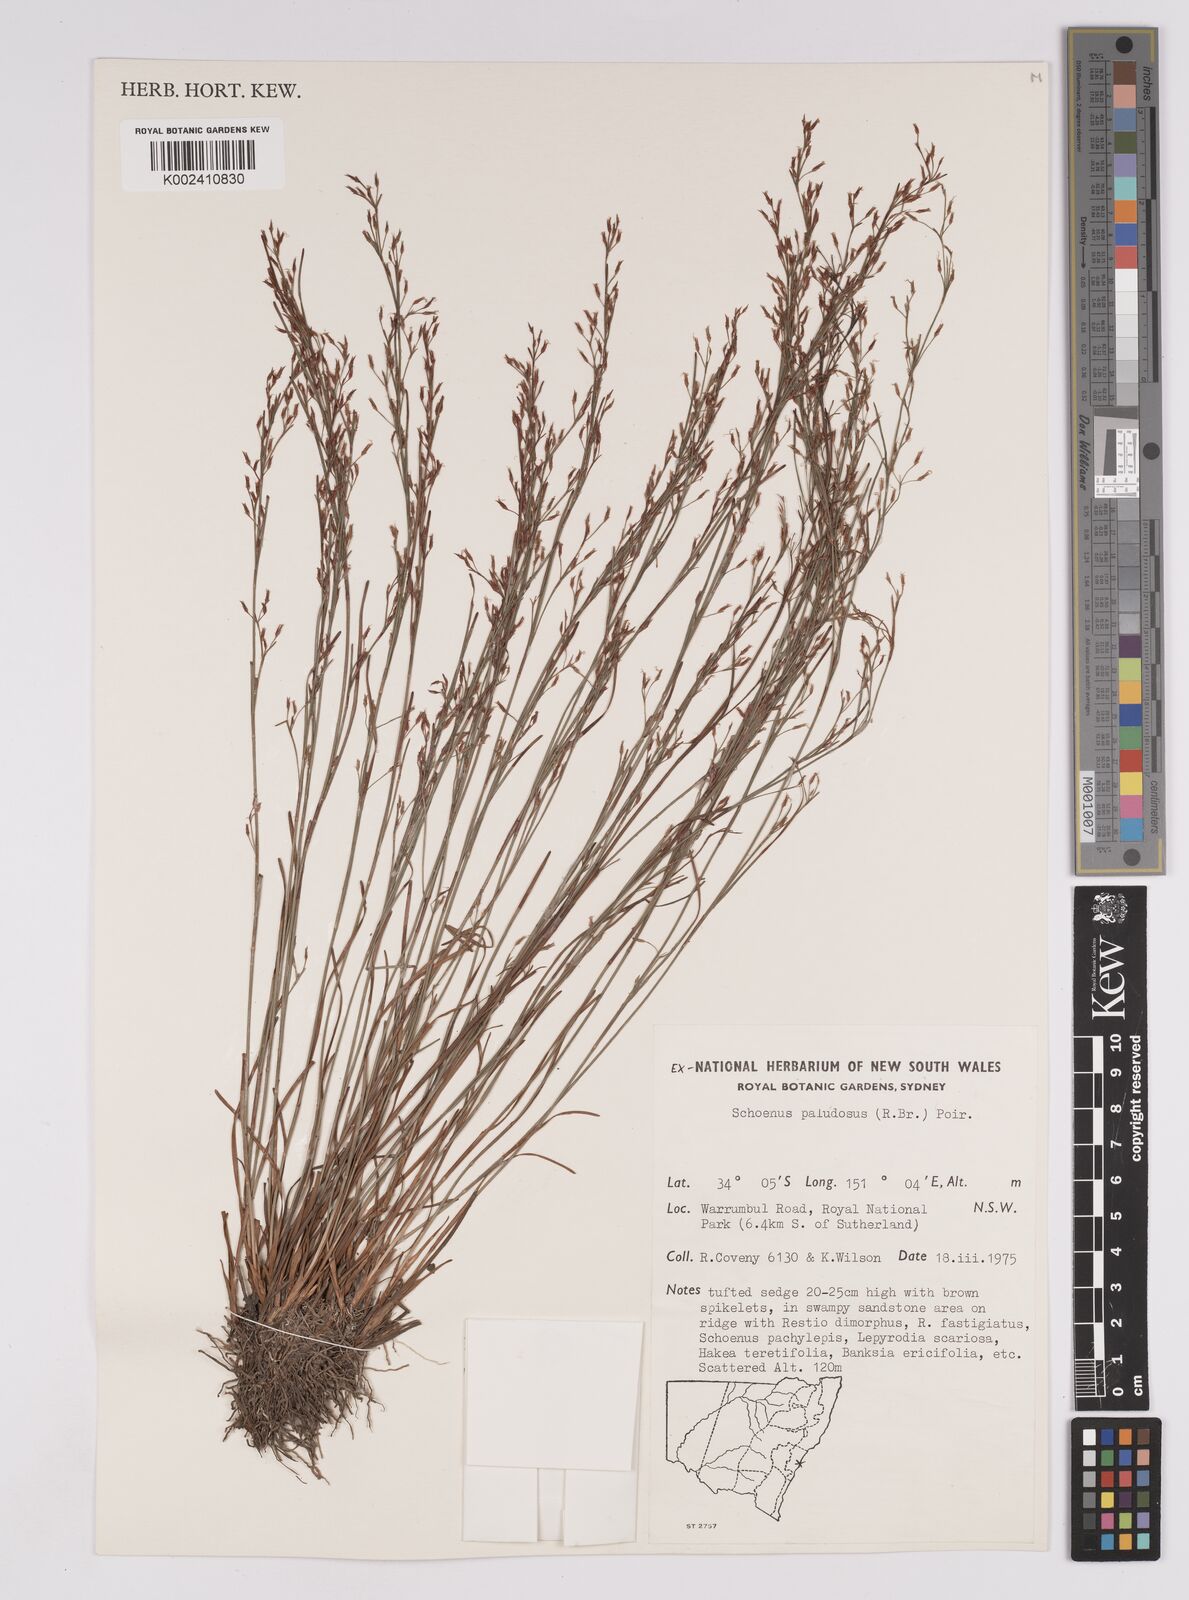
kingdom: Plantae
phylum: Tracheophyta
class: Liliopsida
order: Poales
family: Cyperaceae
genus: Anthelepis
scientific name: Anthelepis paludosa
